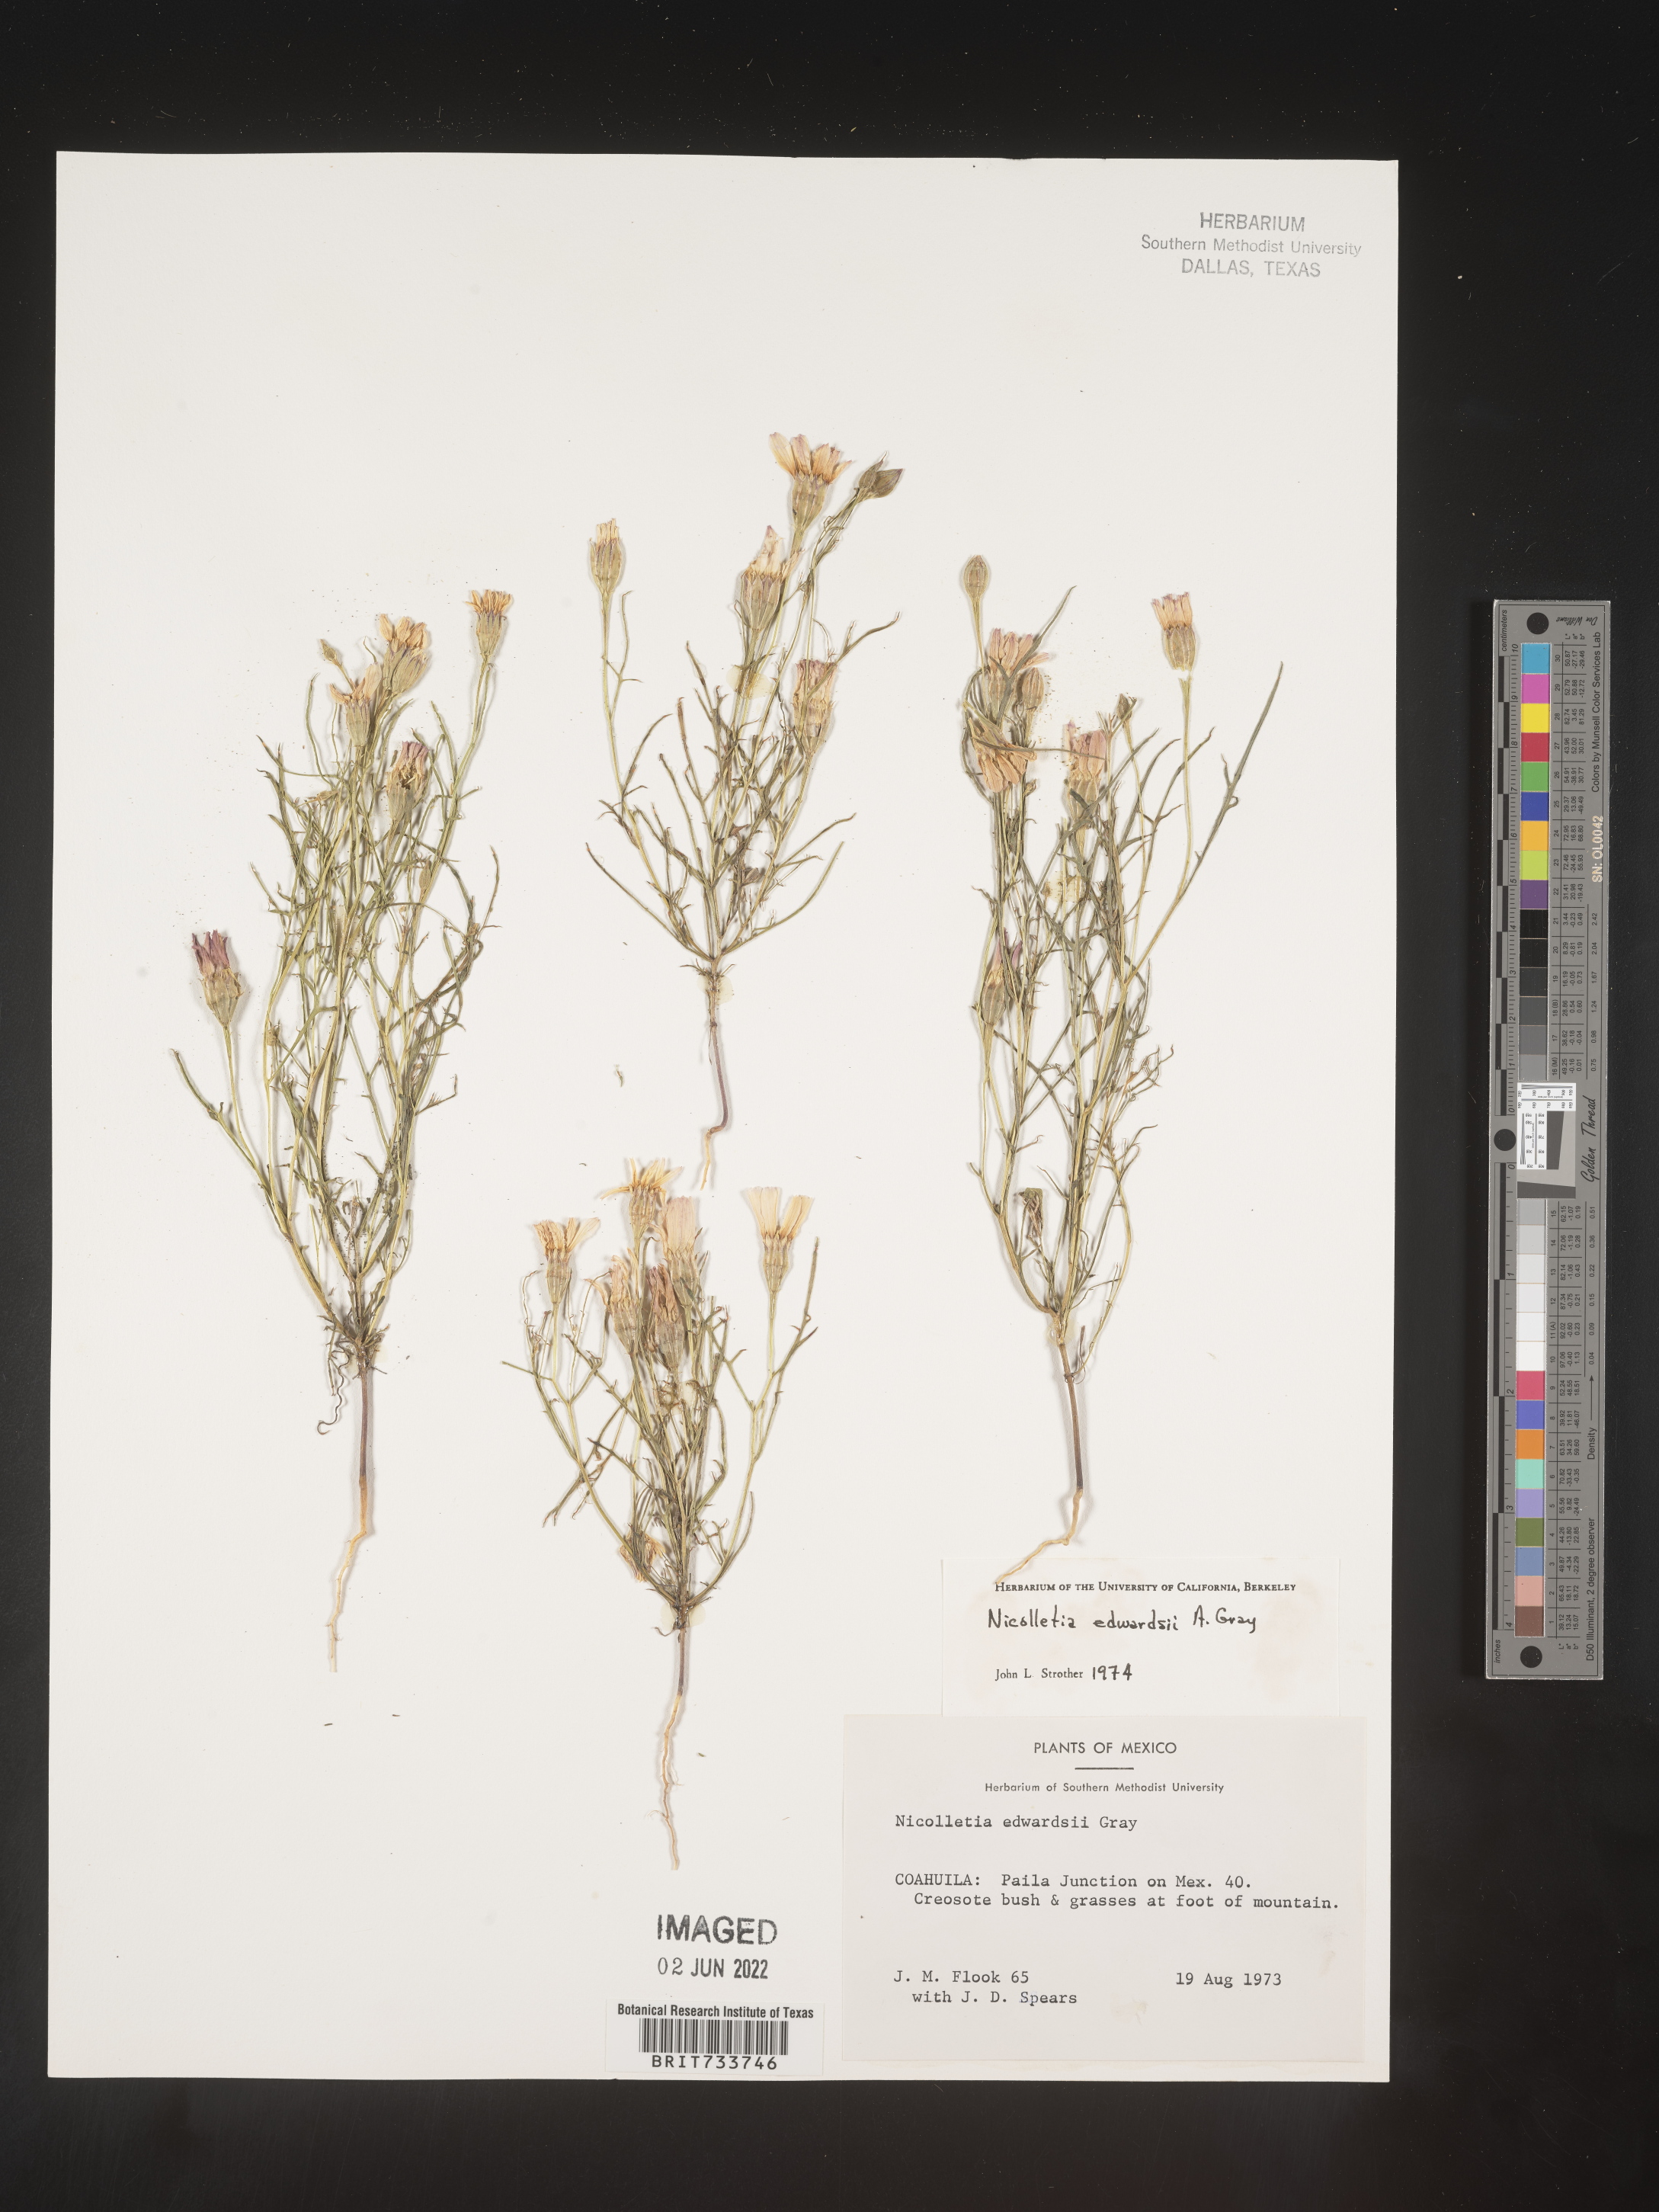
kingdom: Plantae
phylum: Tracheophyta
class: Magnoliopsida
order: Asterales
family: Asteraceae
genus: Nicolletia
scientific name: Nicolletia
